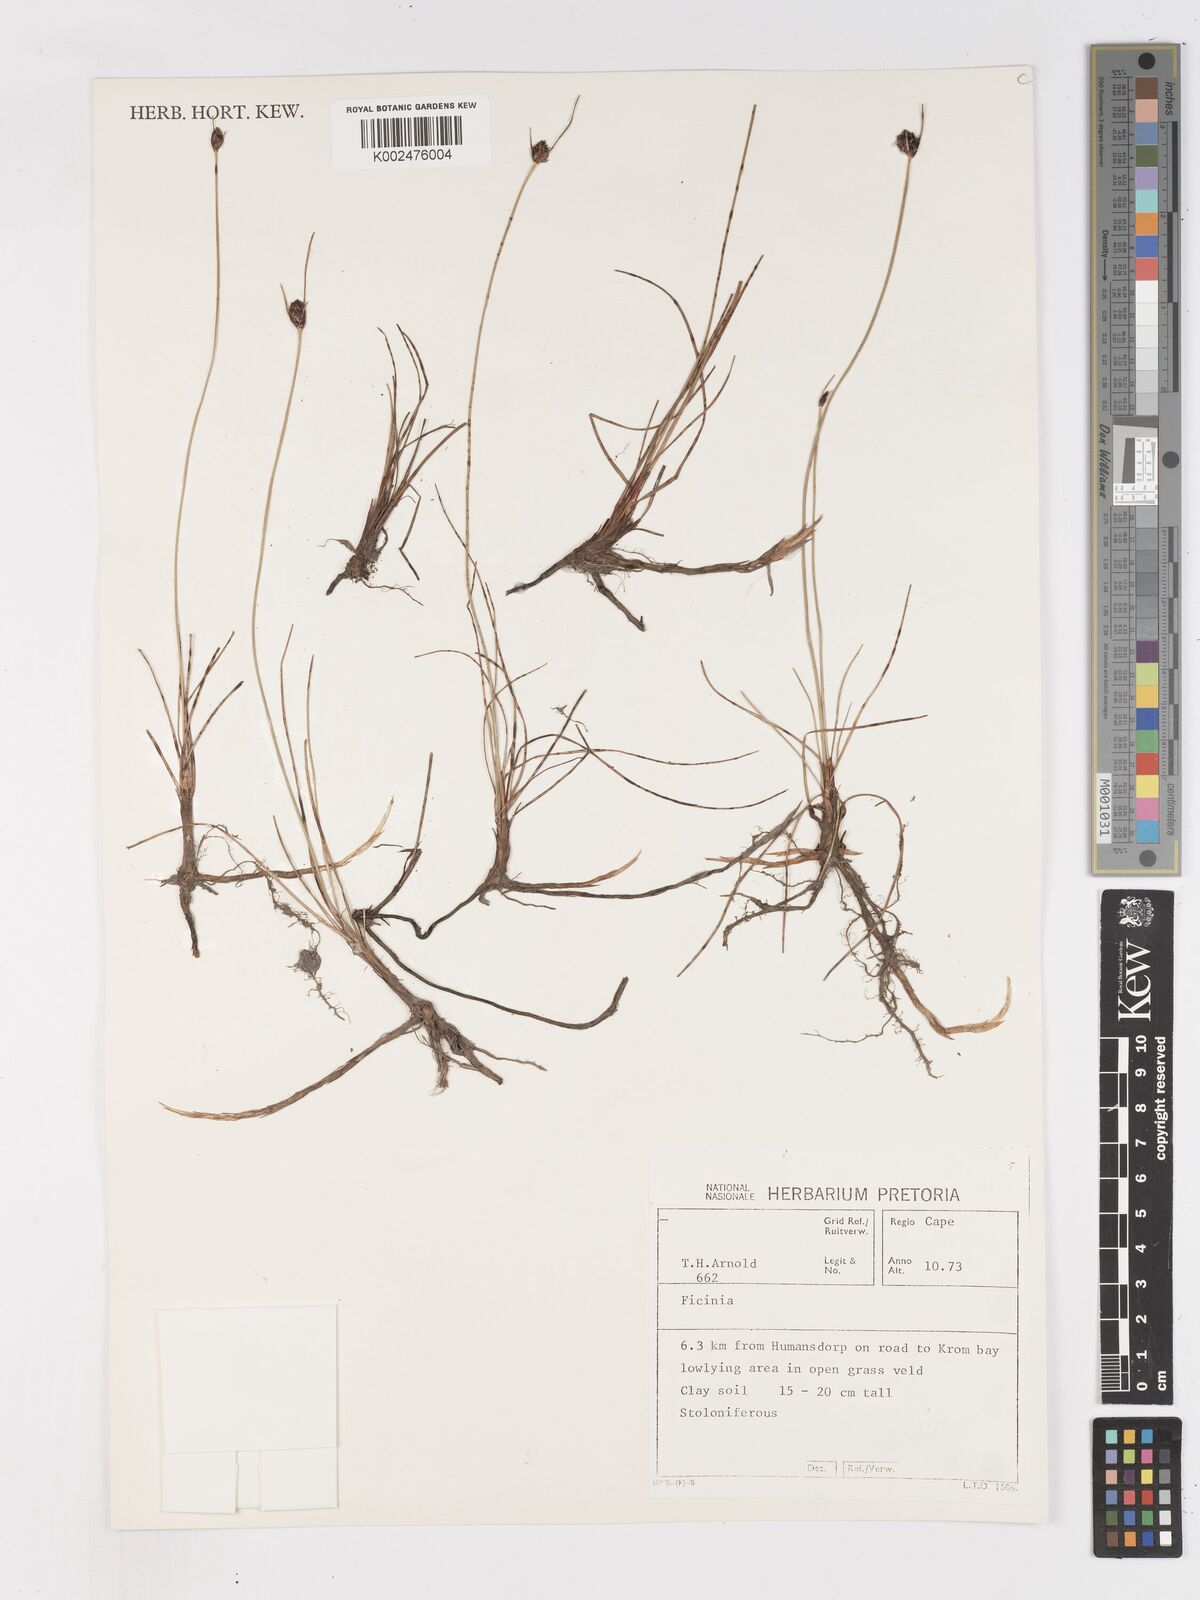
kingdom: Plantae
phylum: Tracheophyta
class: Liliopsida
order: Poales
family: Cyperaceae
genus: Ficinia
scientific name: Ficinia indica
